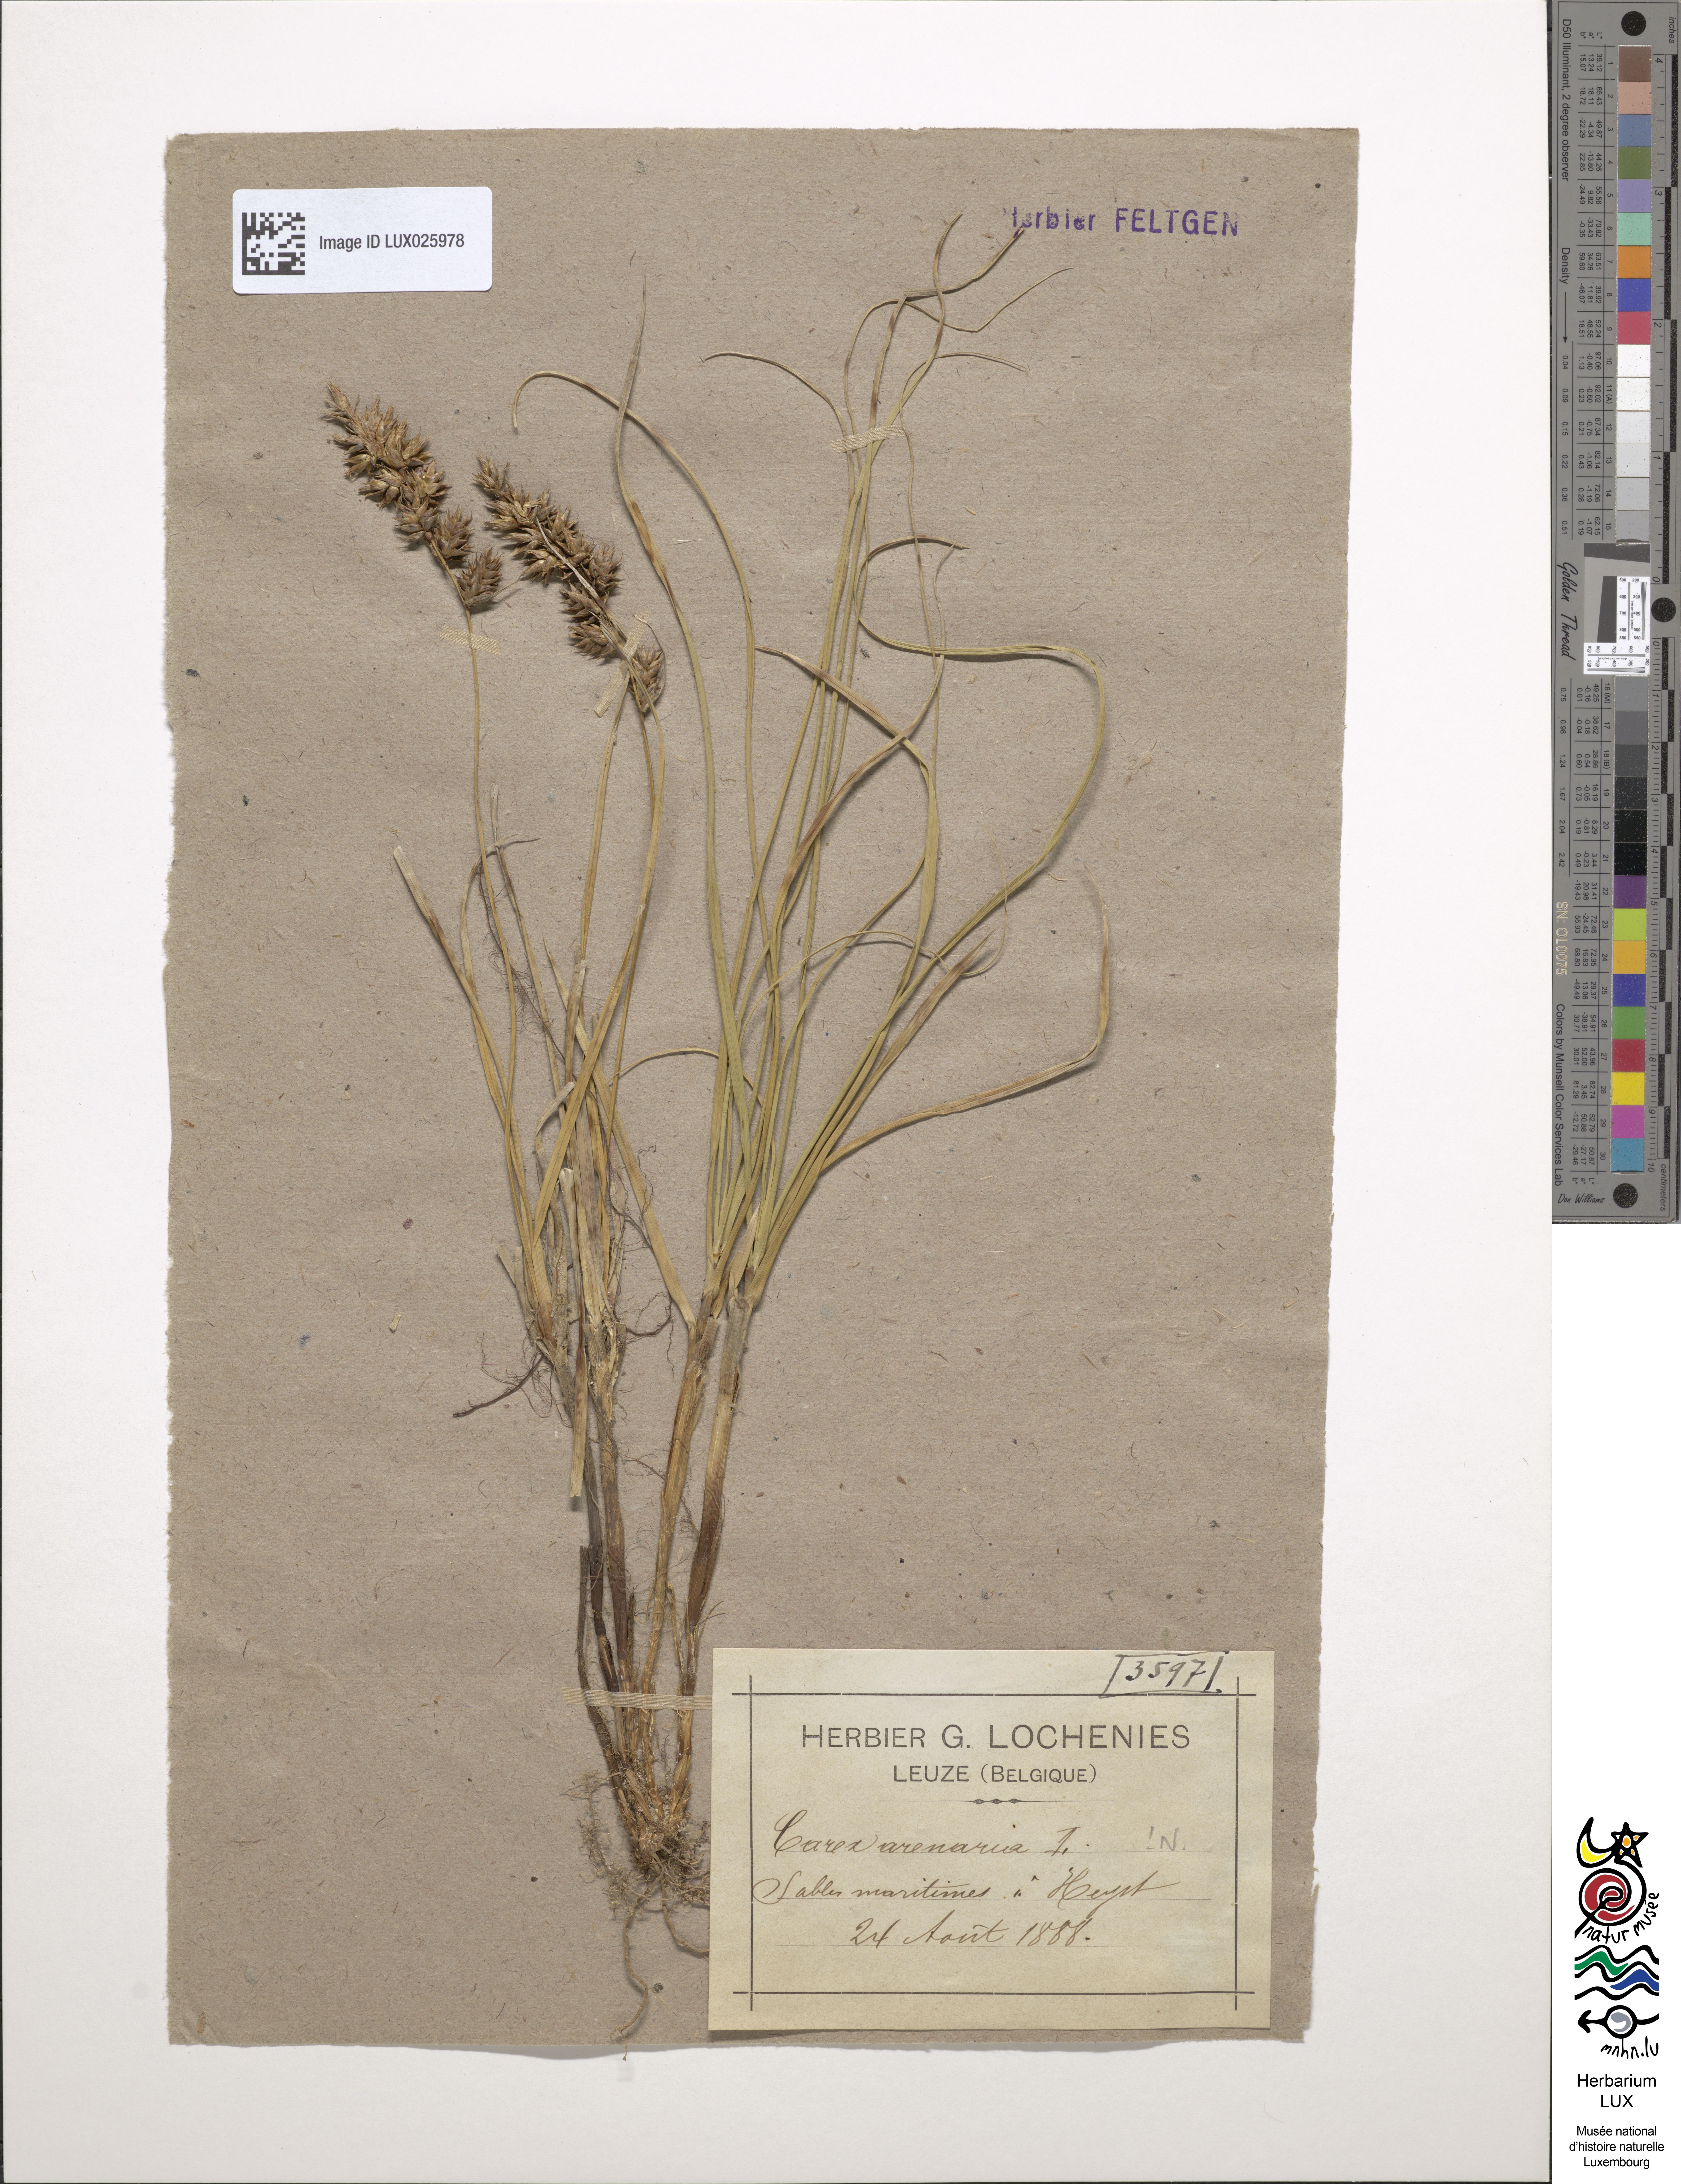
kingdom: Plantae
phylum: Tracheophyta
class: Liliopsida
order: Poales
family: Cyperaceae
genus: Carex
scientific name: Carex arenaria
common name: Sand sedge
